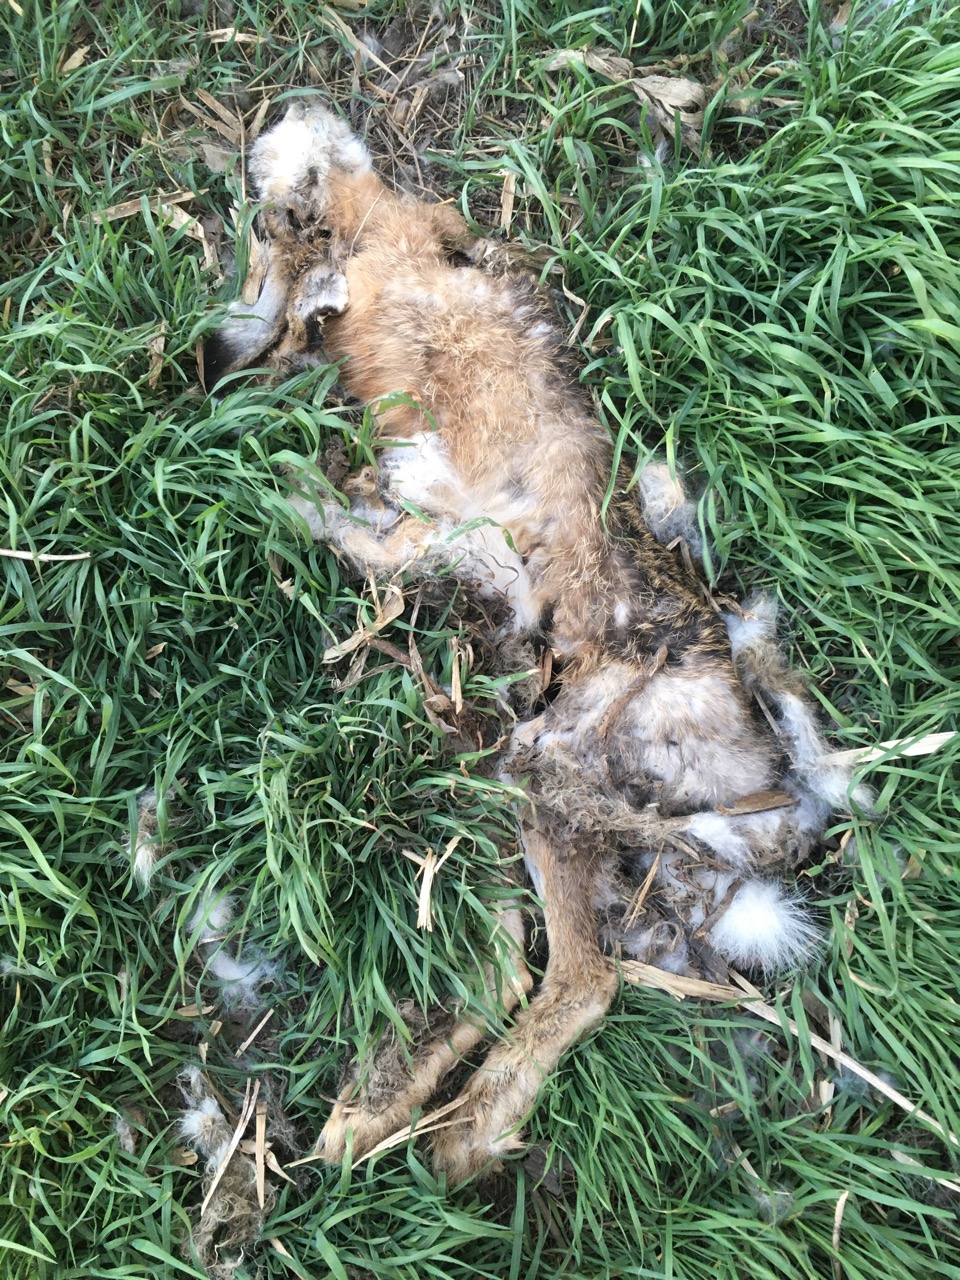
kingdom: Animalia
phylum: Chordata
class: Mammalia
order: Lagomorpha
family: Leporidae
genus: Lepus
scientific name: Lepus europaeus
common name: European hare
